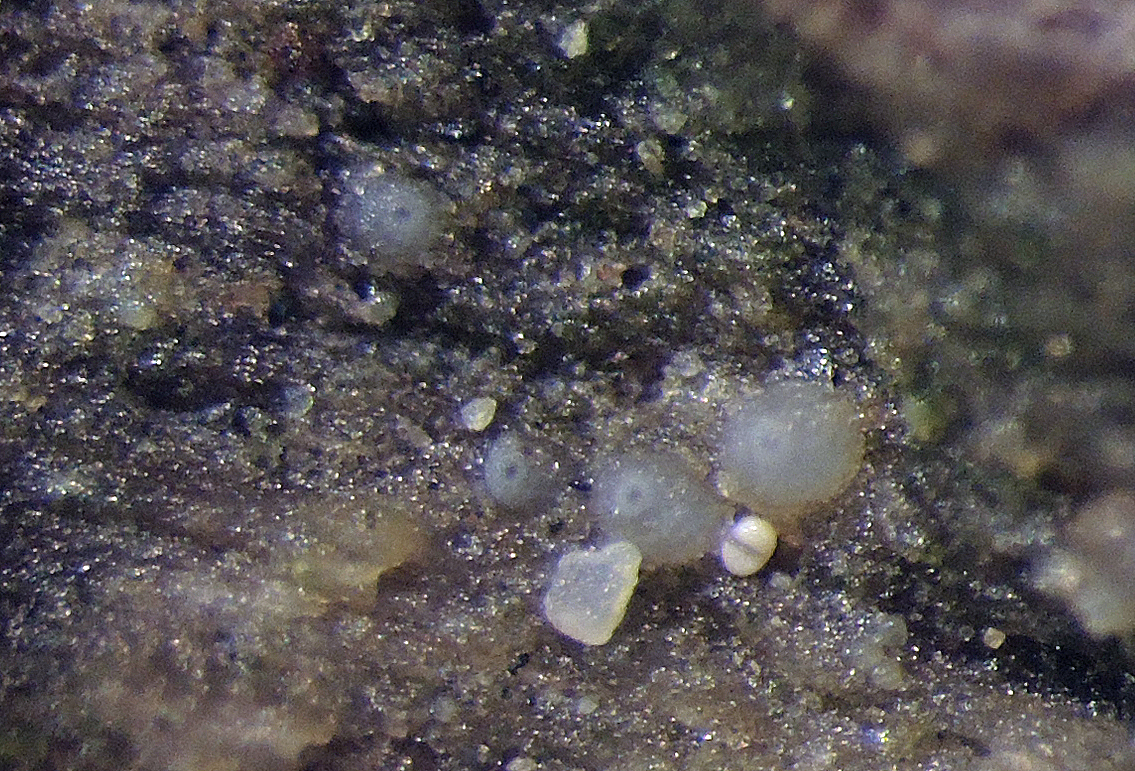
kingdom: Fungi
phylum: Ascomycota
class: Sordariomycetes
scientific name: Sordariomycetes
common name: kernesvampklassen
